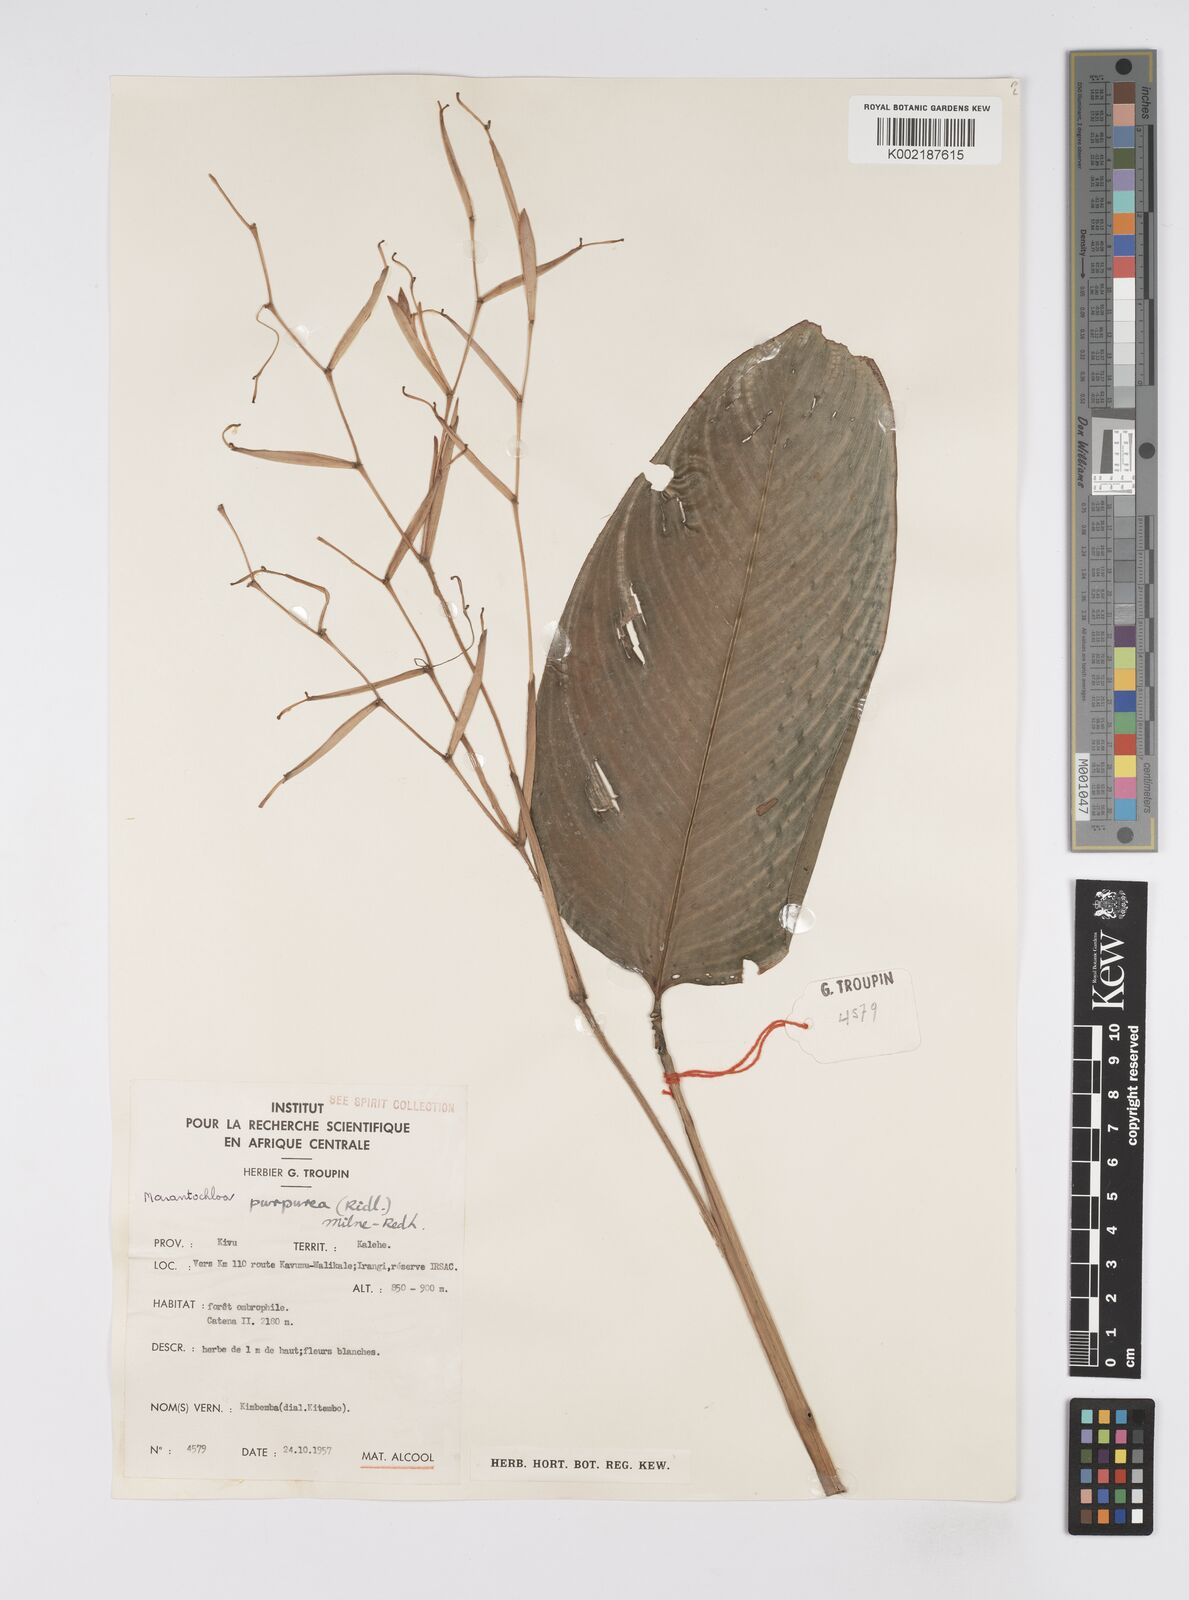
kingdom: Plantae
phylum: Tracheophyta
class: Liliopsida
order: Zingiberales
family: Marantaceae
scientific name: Marantaceae
